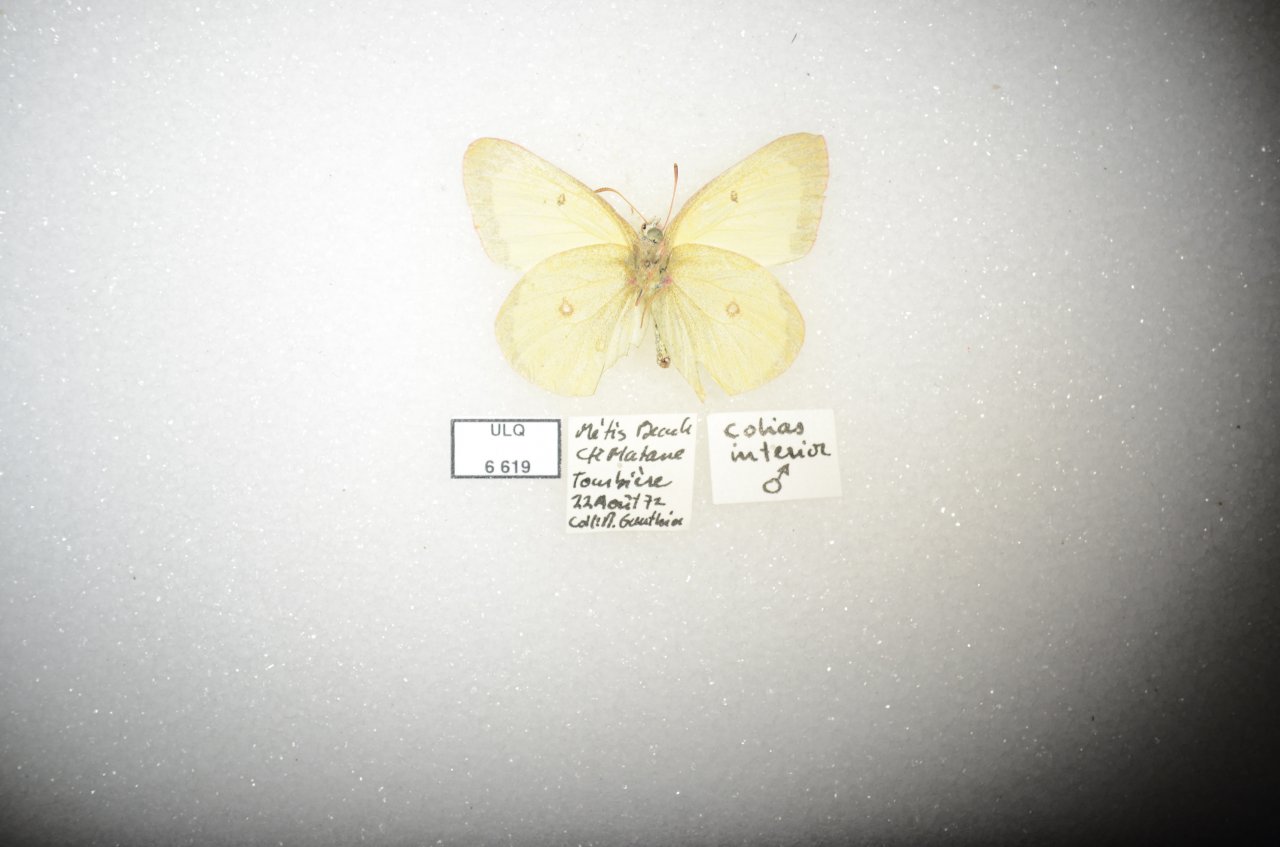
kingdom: Animalia
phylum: Arthropoda
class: Insecta
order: Lepidoptera
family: Pieridae
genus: Colias
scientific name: Colias interior
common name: Pink-edged Sulphur
